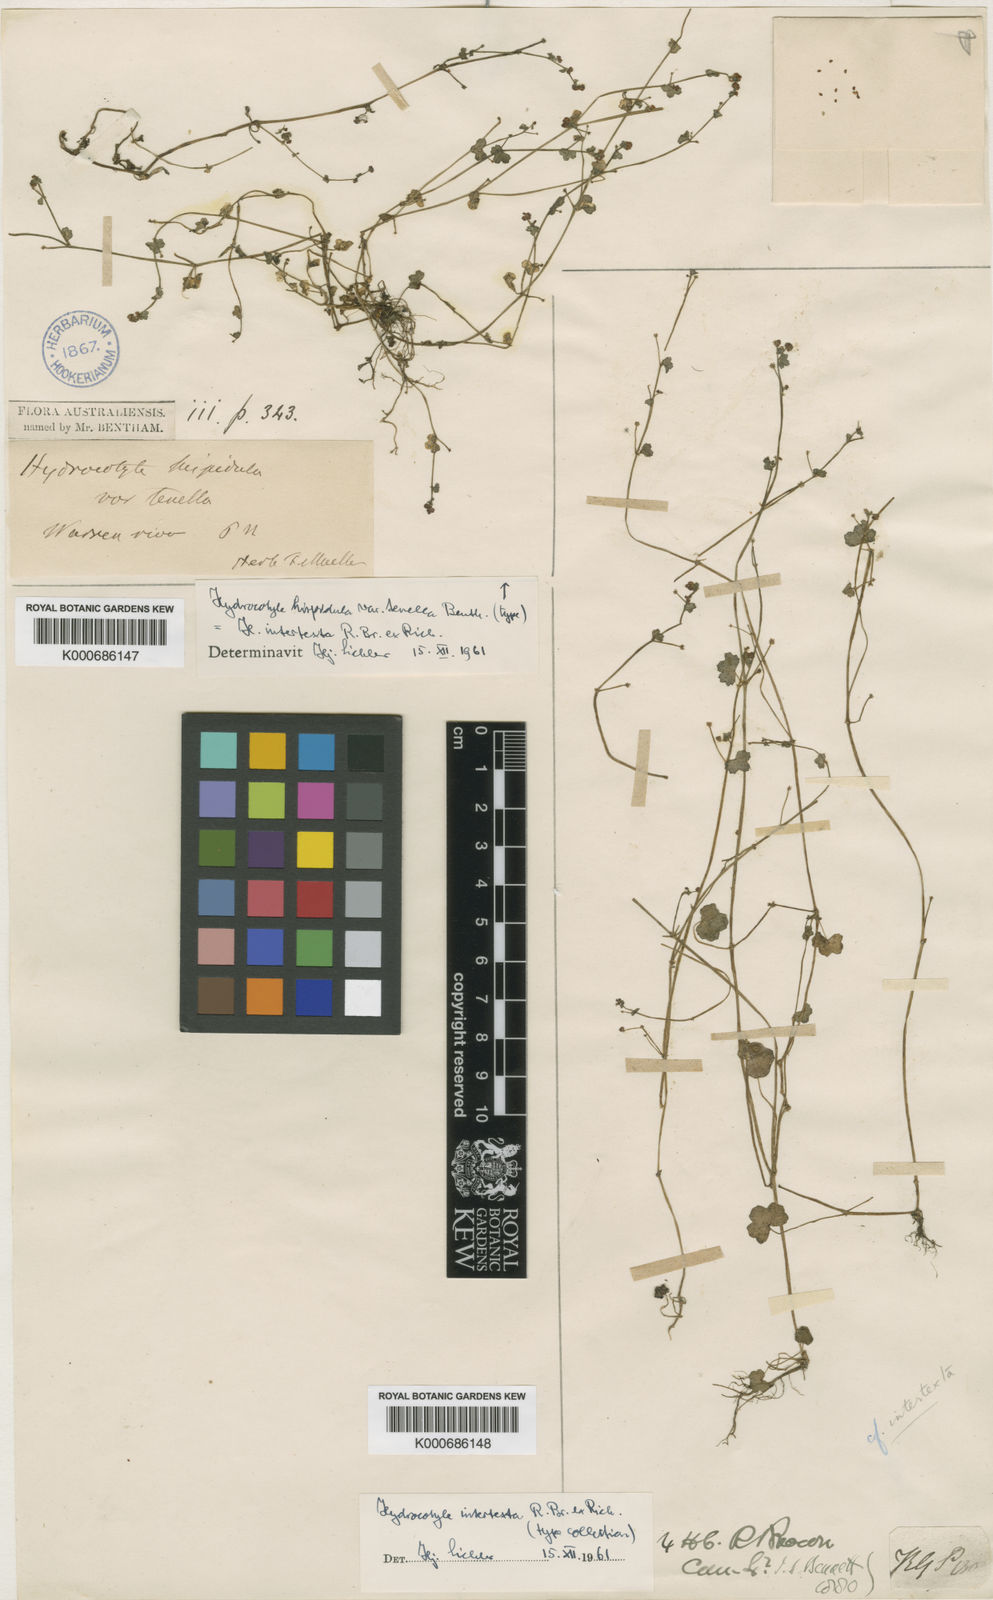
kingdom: Plantae
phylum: Tracheophyta
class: Magnoliopsida
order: Apiales
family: Araliaceae
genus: Hydrocotyle
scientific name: Hydrocotyle hispidula
